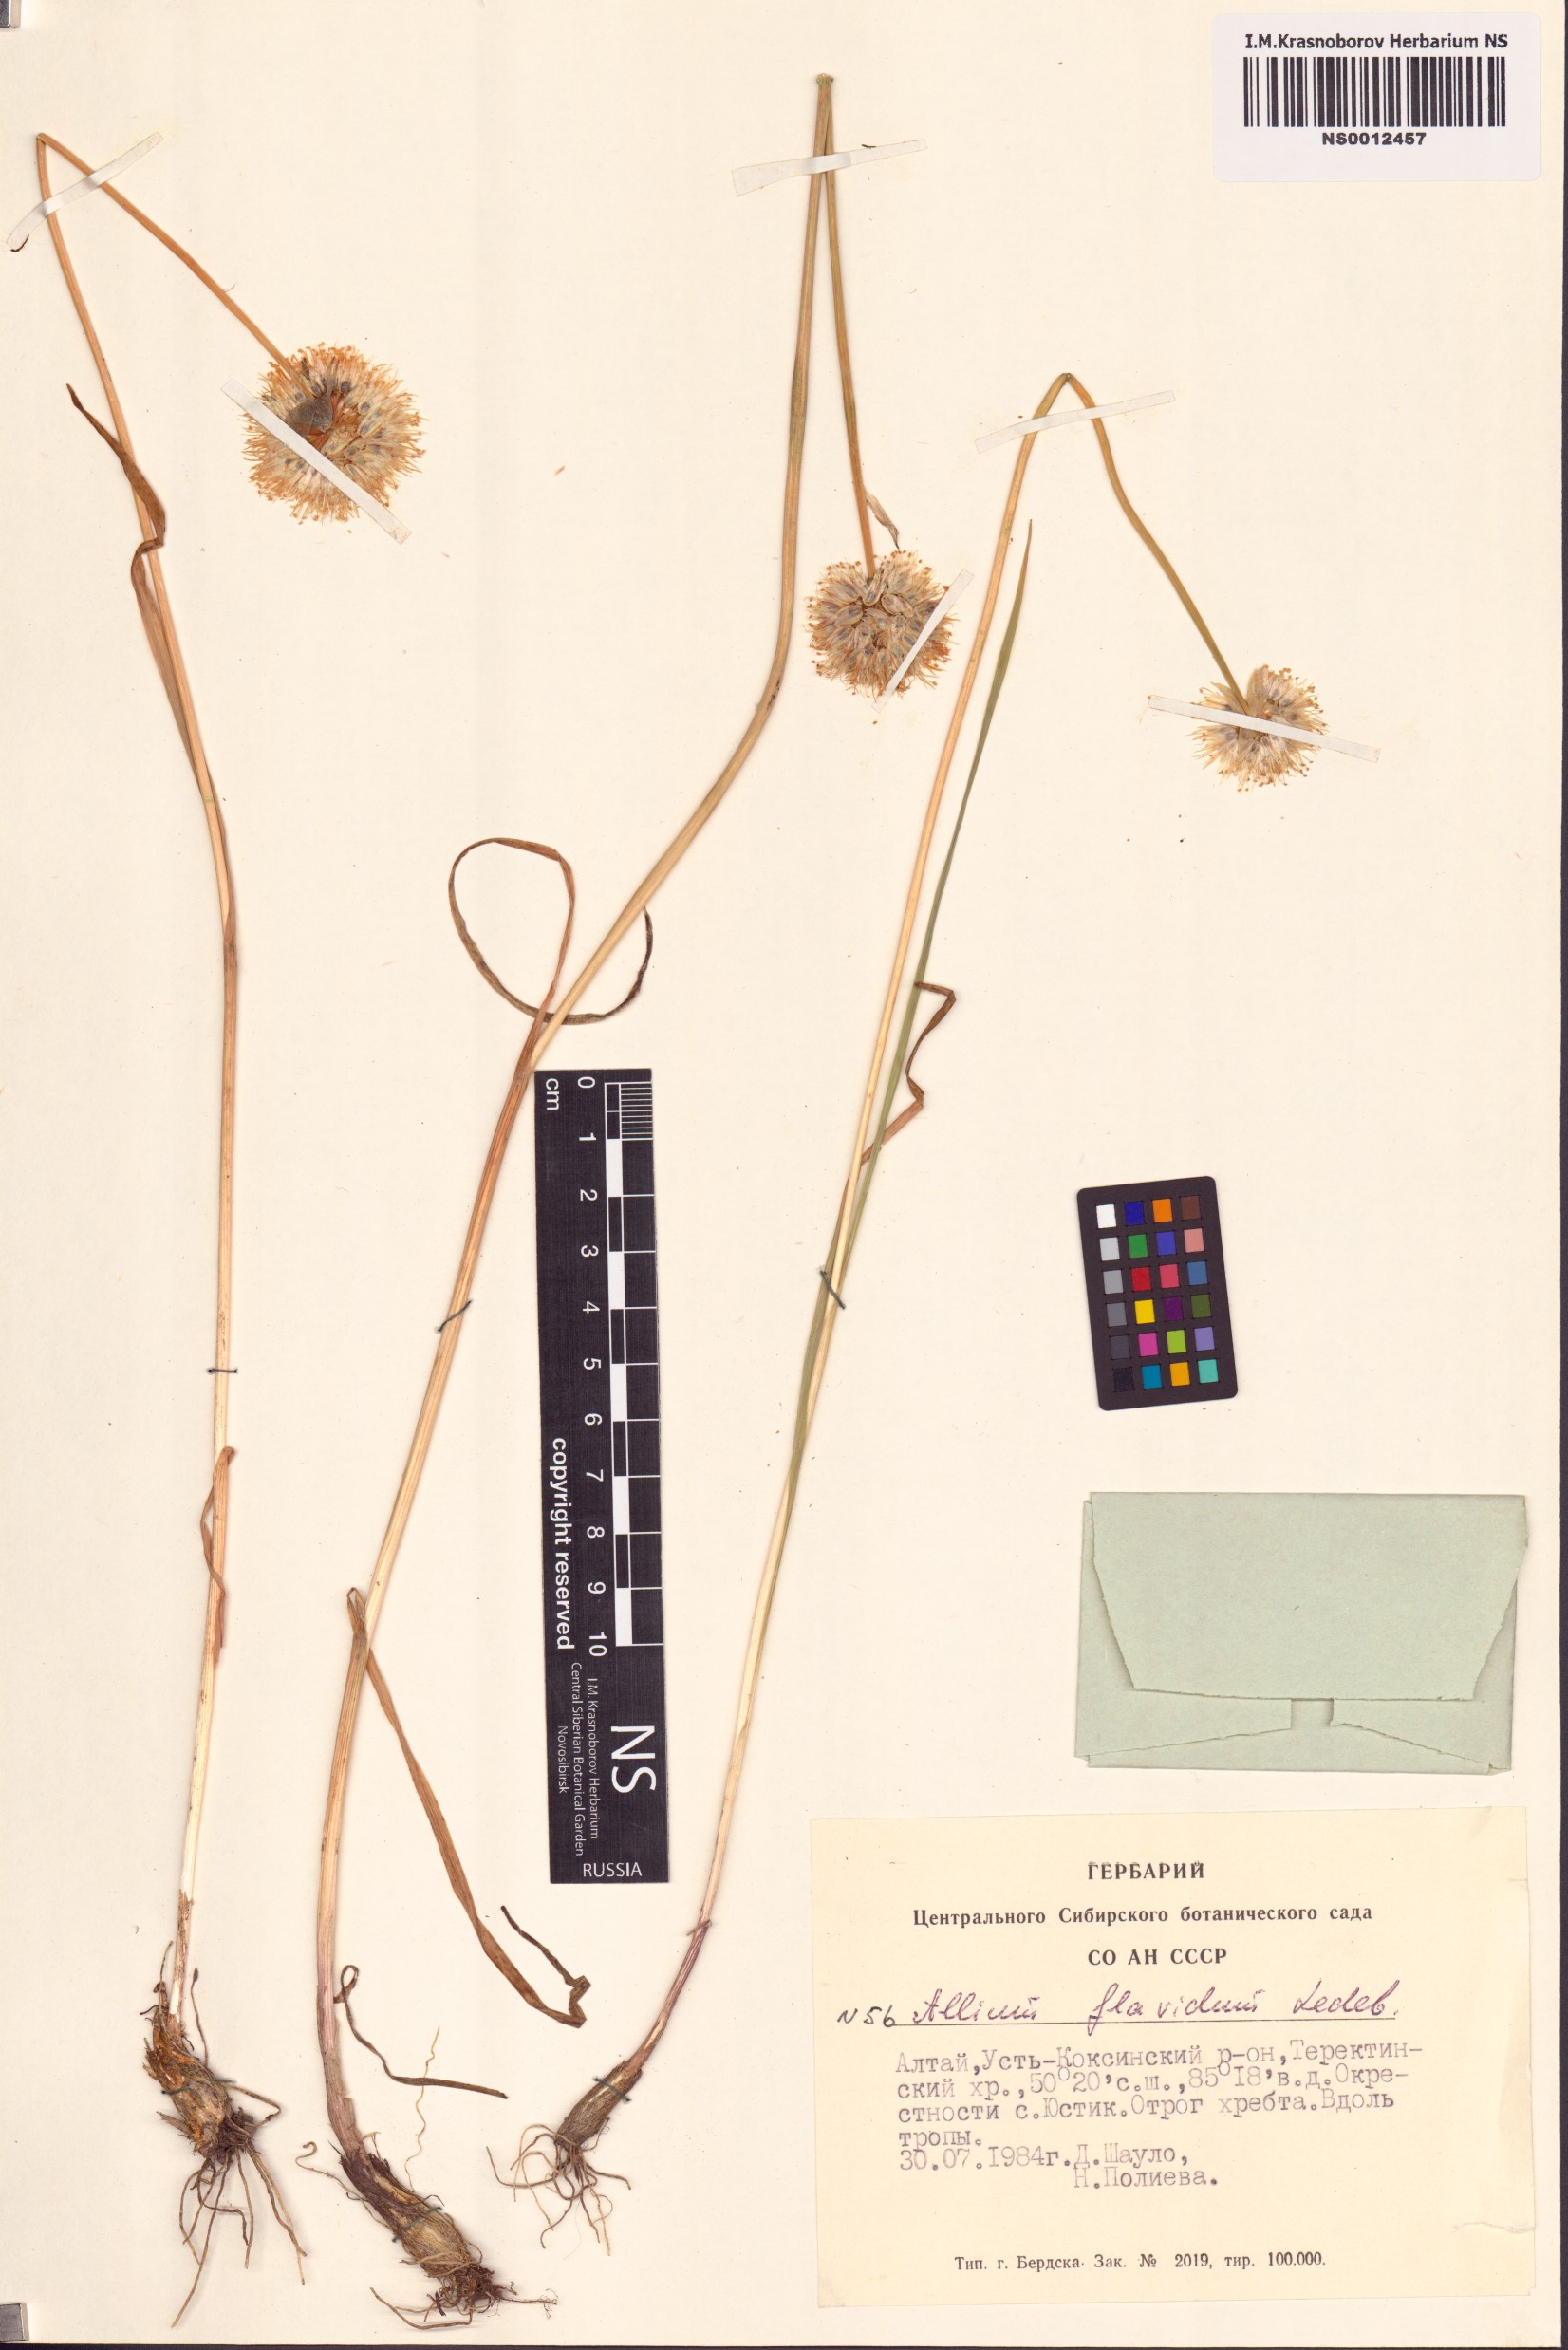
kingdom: Plantae
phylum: Tracheophyta
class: Liliopsida
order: Asparagales
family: Amaryllidaceae
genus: Allium
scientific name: Allium flavidum
